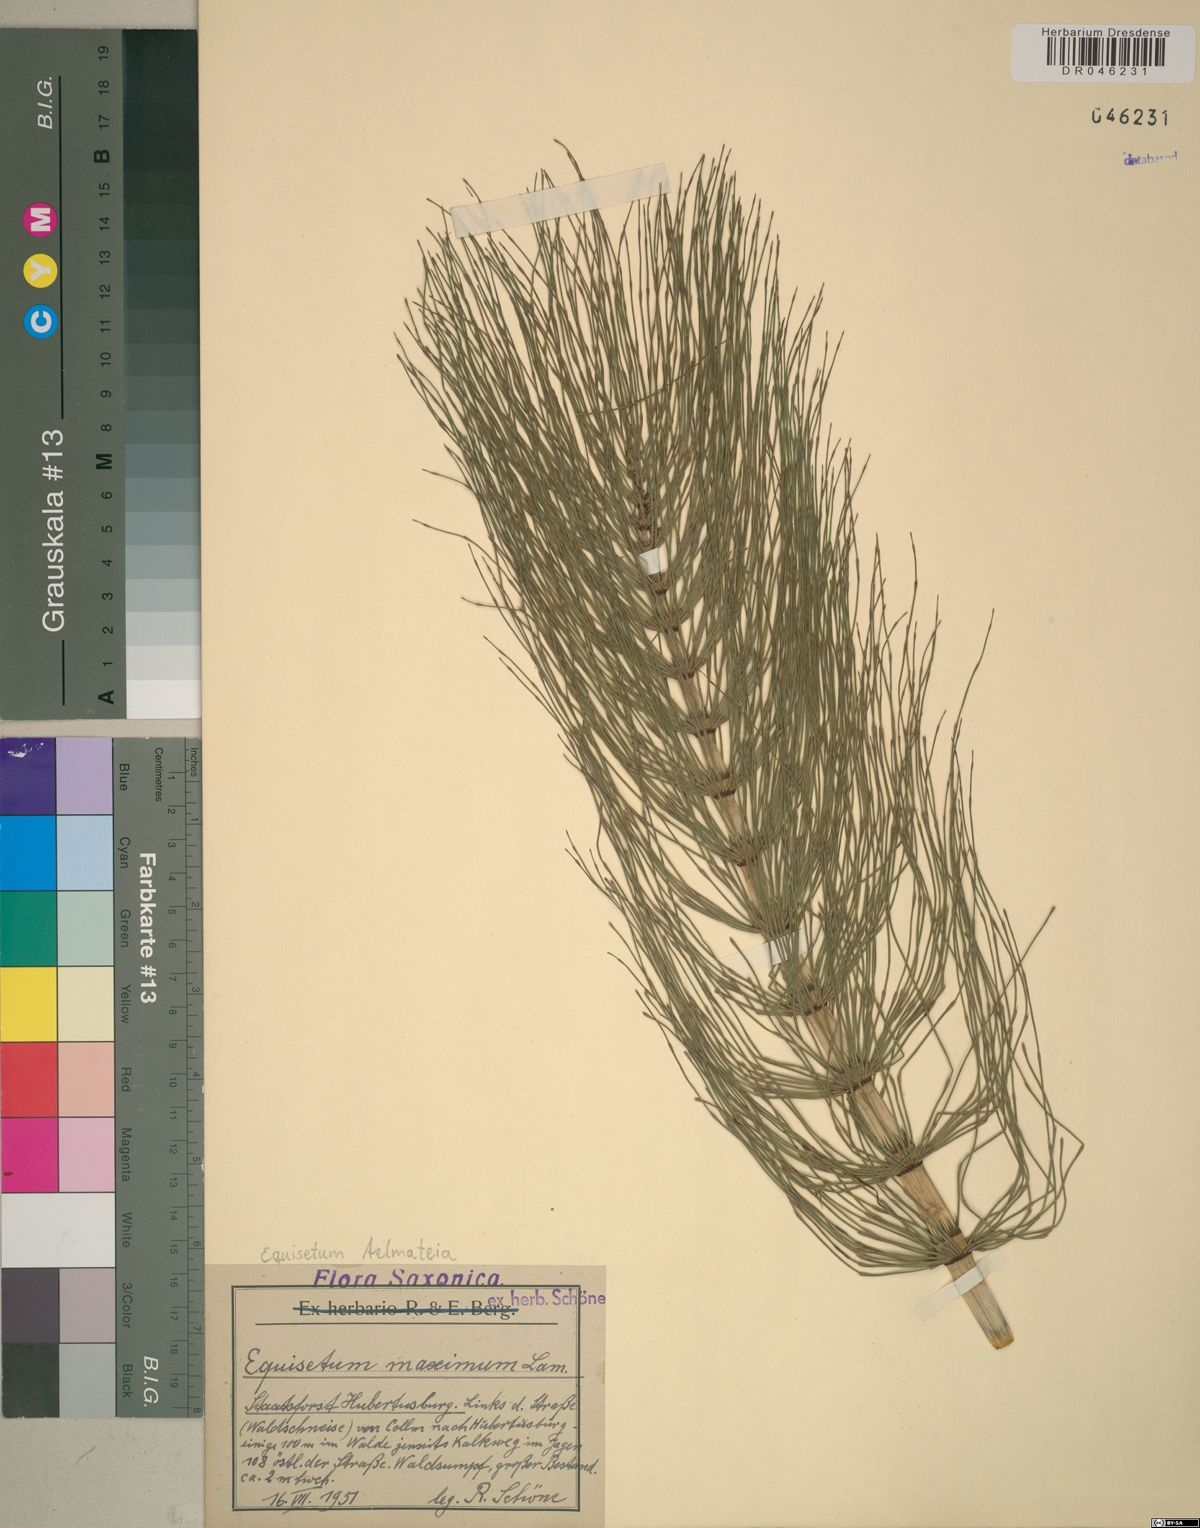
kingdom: Plantae
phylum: Tracheophyta
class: Polypodiopsida
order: Equisetales
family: Equisetaceae
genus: Equisetum
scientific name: Equisetum telmateia
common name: Great horsetail
